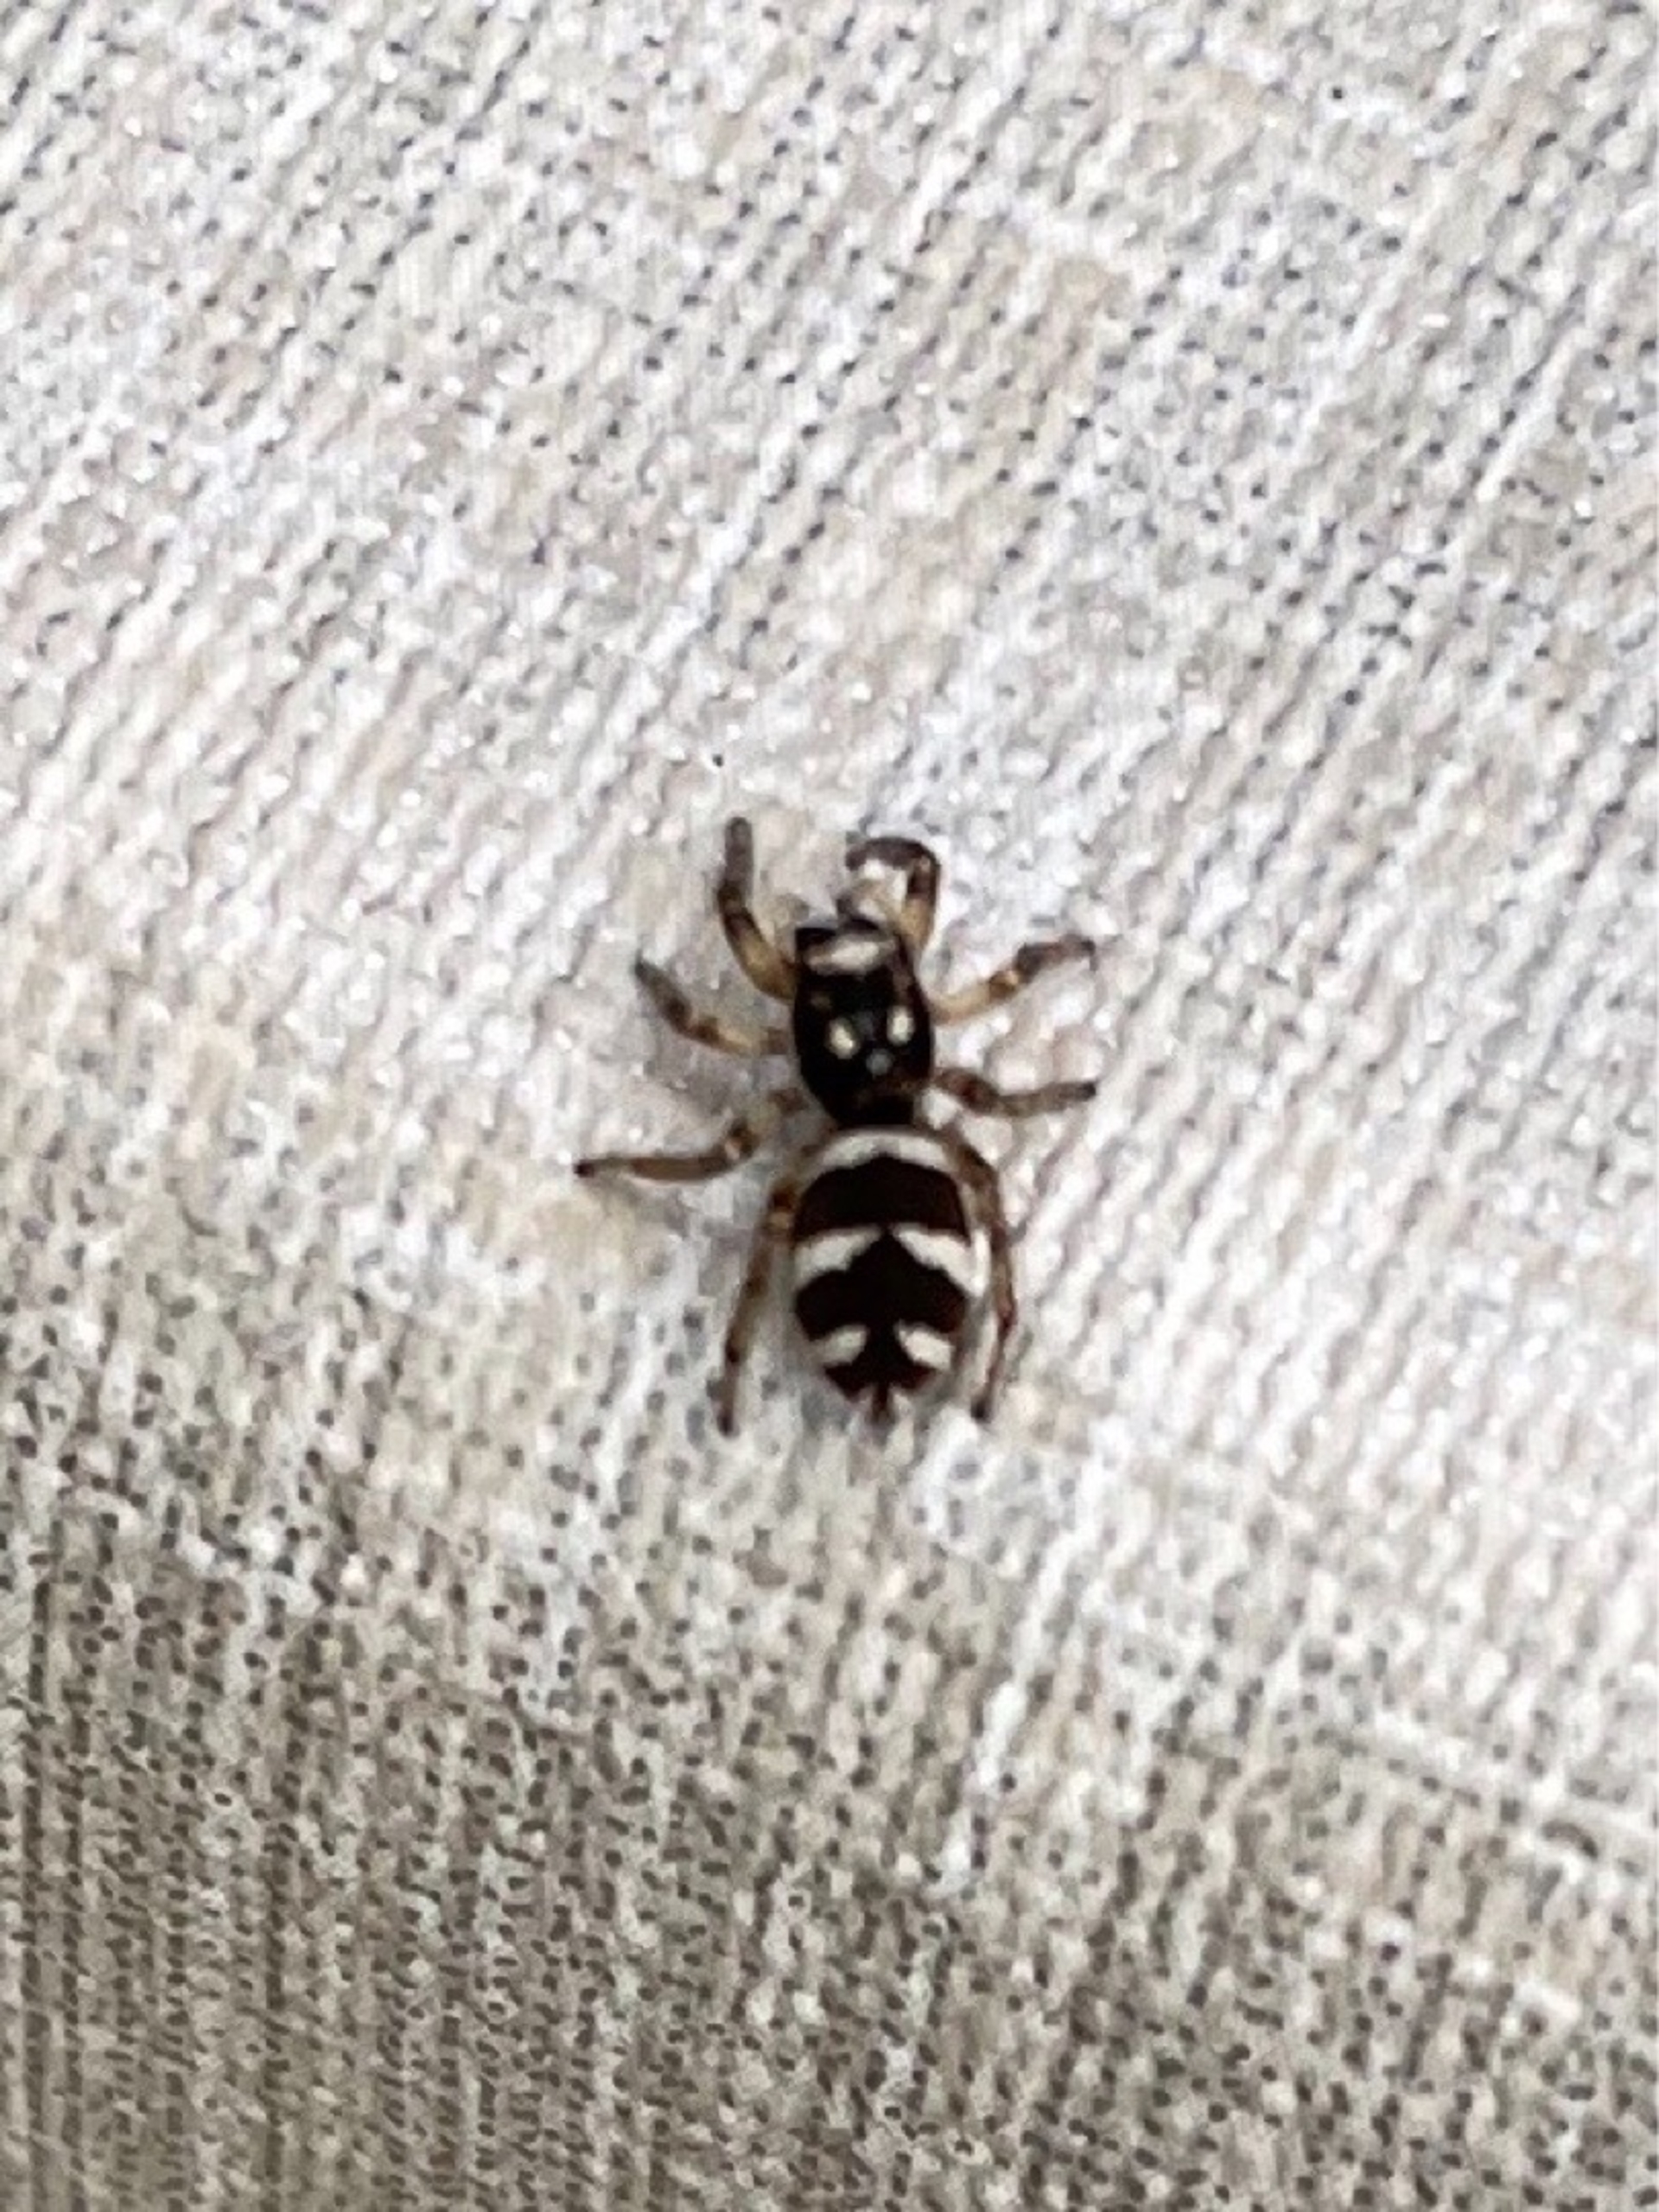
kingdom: Animalia
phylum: Arthropoda
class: Arachnida
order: Araneae
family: Salticidae
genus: Salticus
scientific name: Salticus scenicus
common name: Almindelig zebraedderkop
